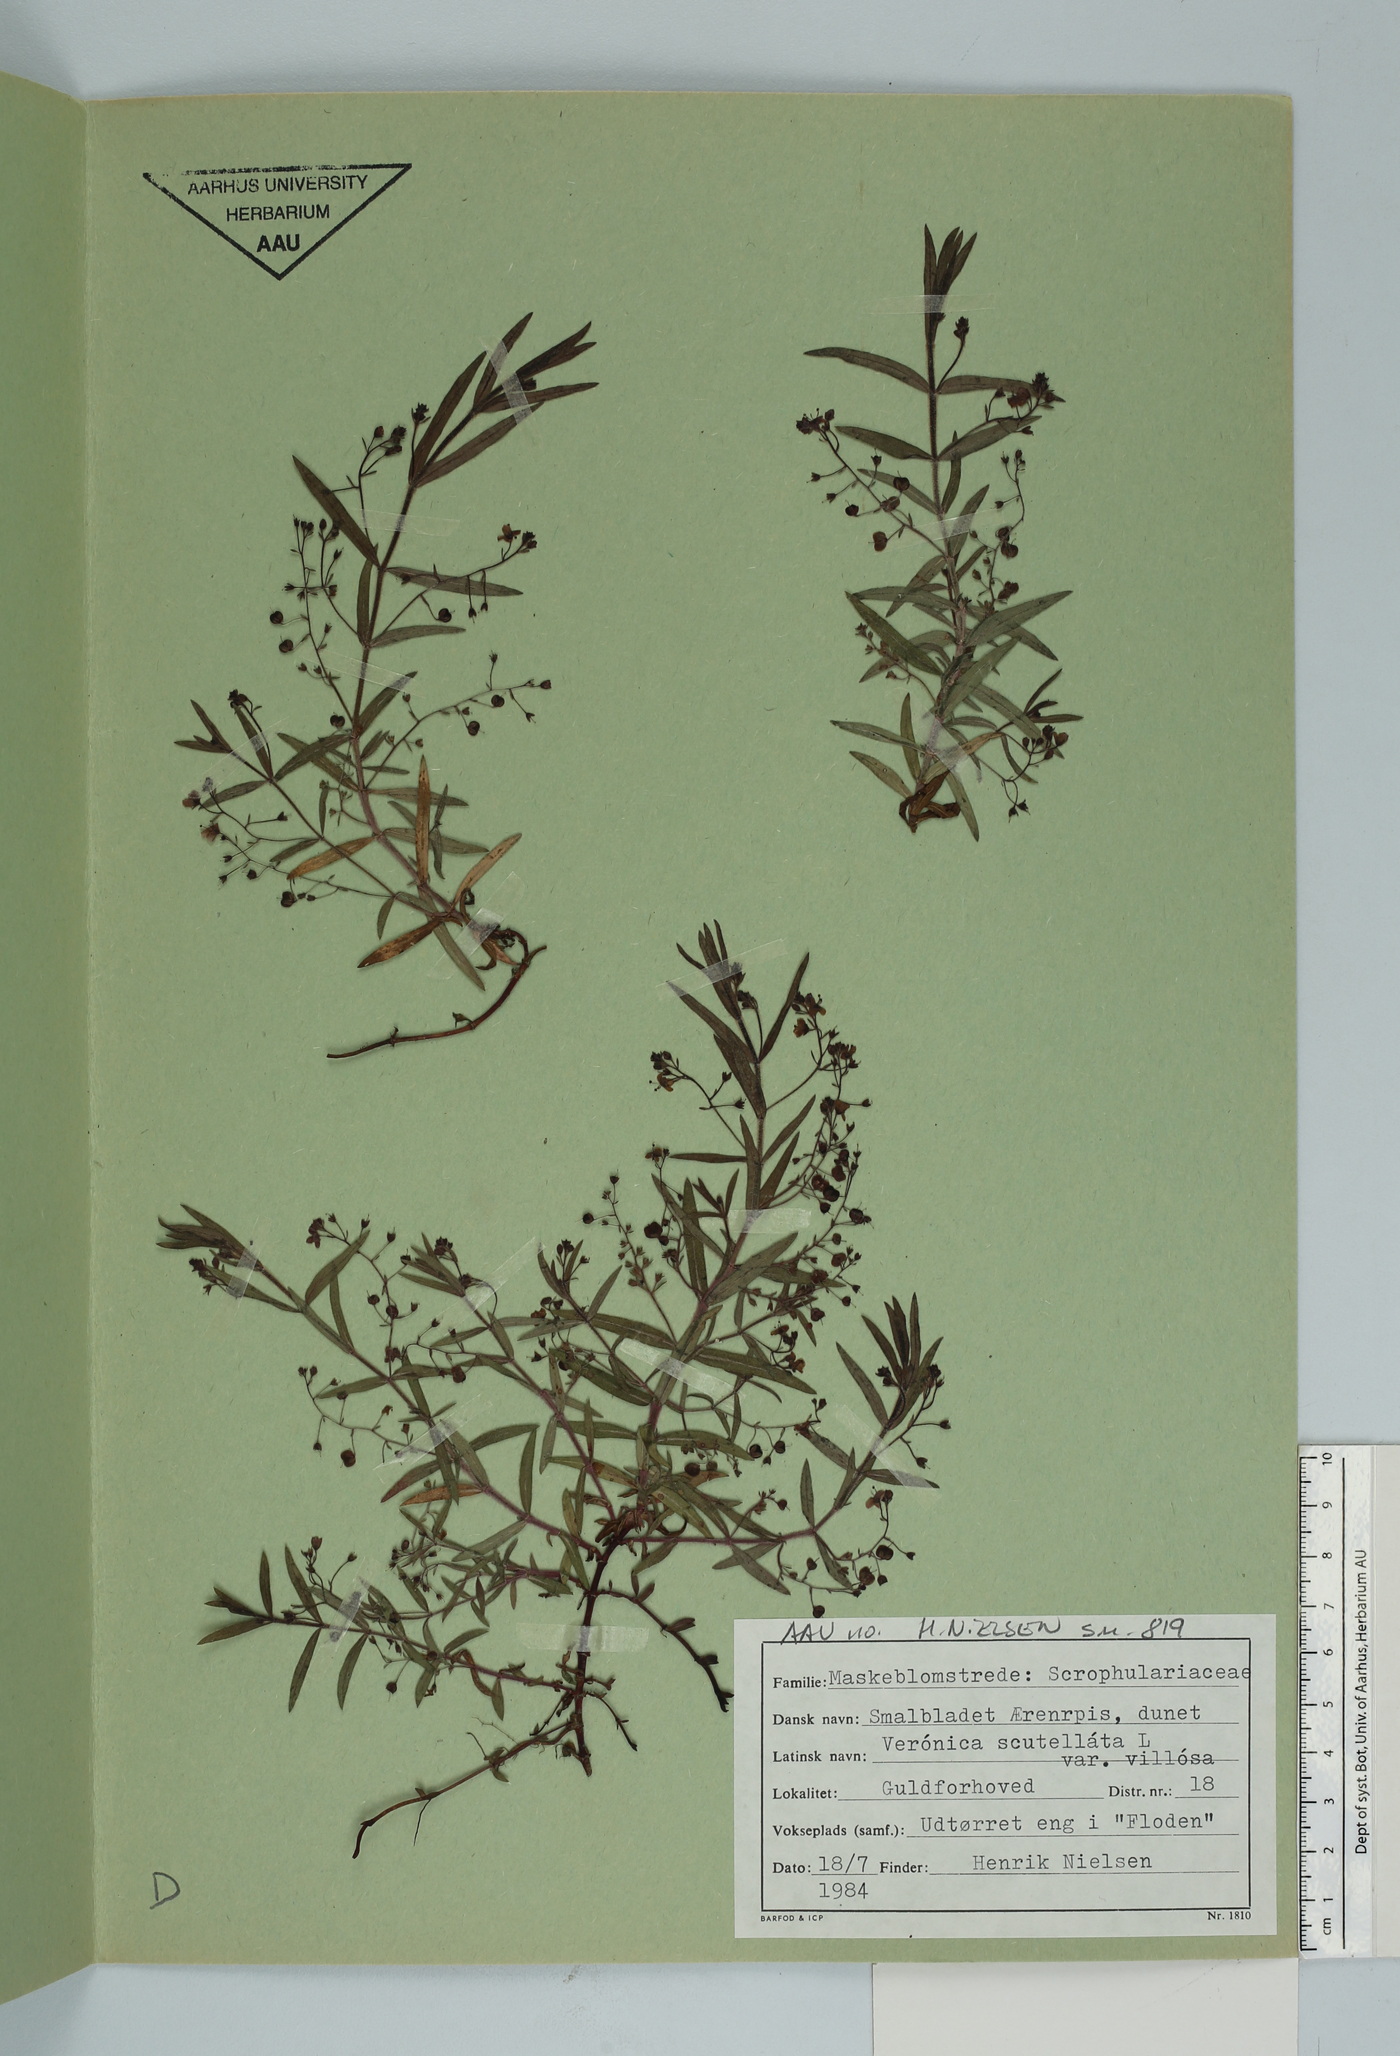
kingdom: Plantae
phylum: Tracheophyta
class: Magnoliopsida
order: Lamiales
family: Plantaginaceae
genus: Veronica
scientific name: Veronica scutellata
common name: Marsh speedwell
